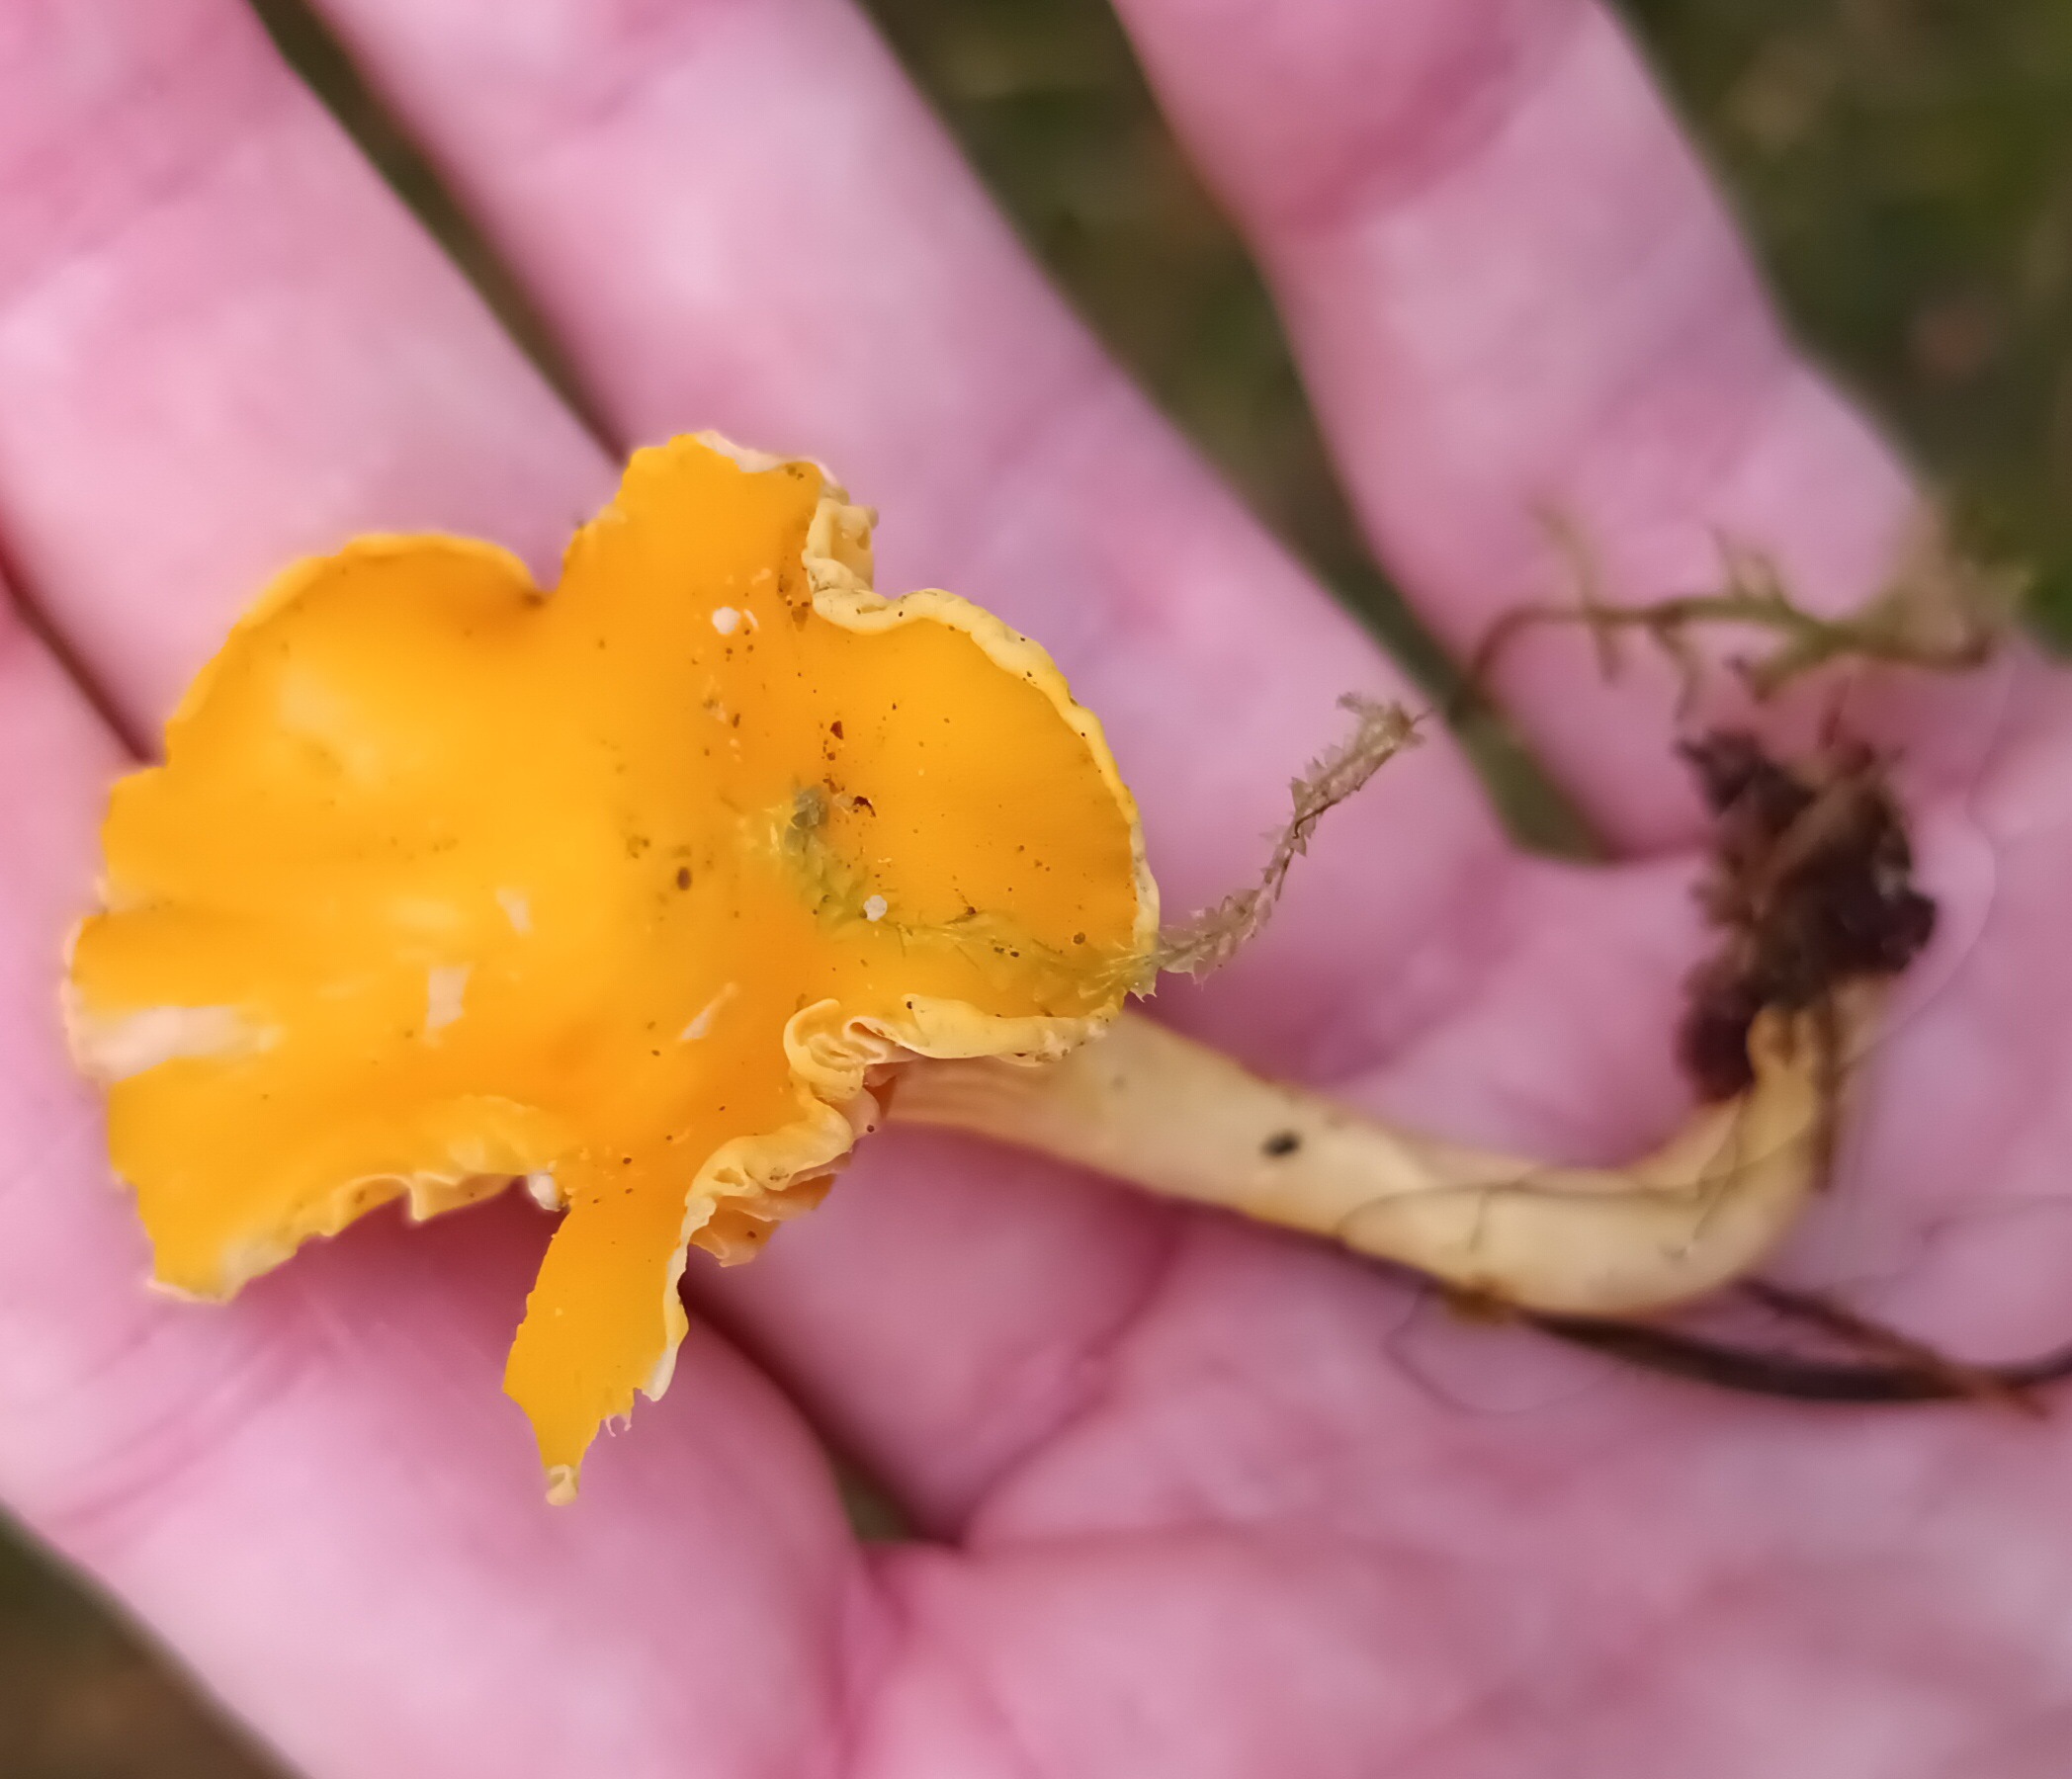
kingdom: Fungi
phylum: Basidiomycota
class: Agaricomycetes
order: Cantharellales
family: Hydnaceae
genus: Cantharellus
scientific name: Cantharellus cibarius
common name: Almindelig kantarel
